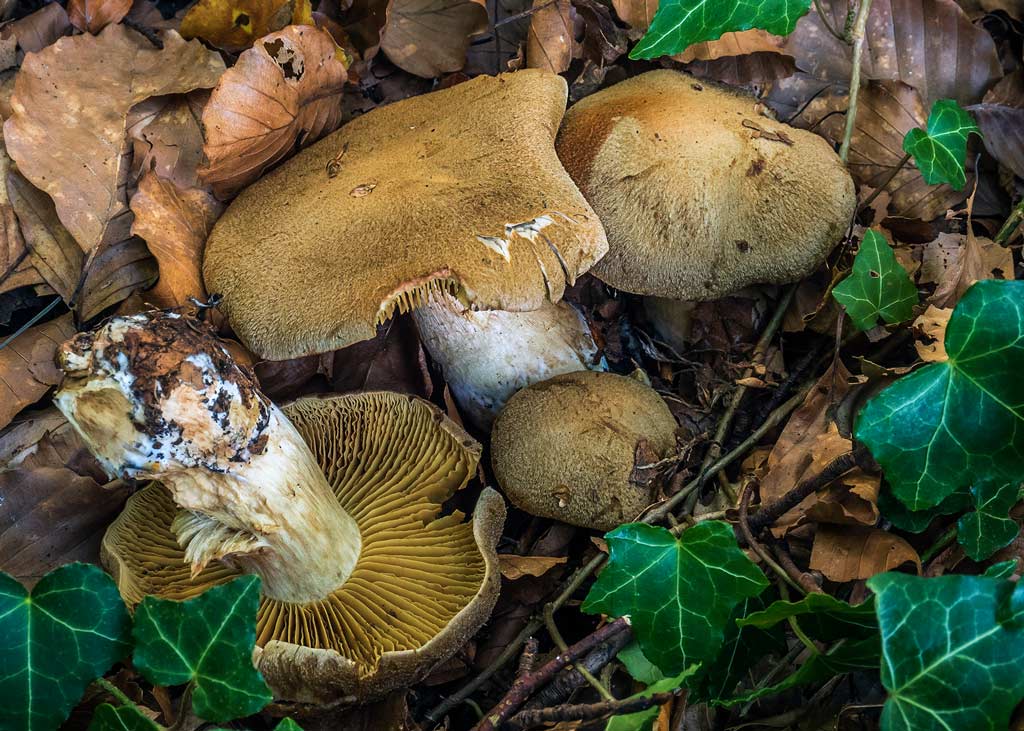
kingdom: Fungi
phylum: Basidiomycota
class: Agaricomycetes
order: Agaricales
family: Cortinariaceae
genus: Cortinarius
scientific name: Cortinarius cotoneus
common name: ulden slørhat
